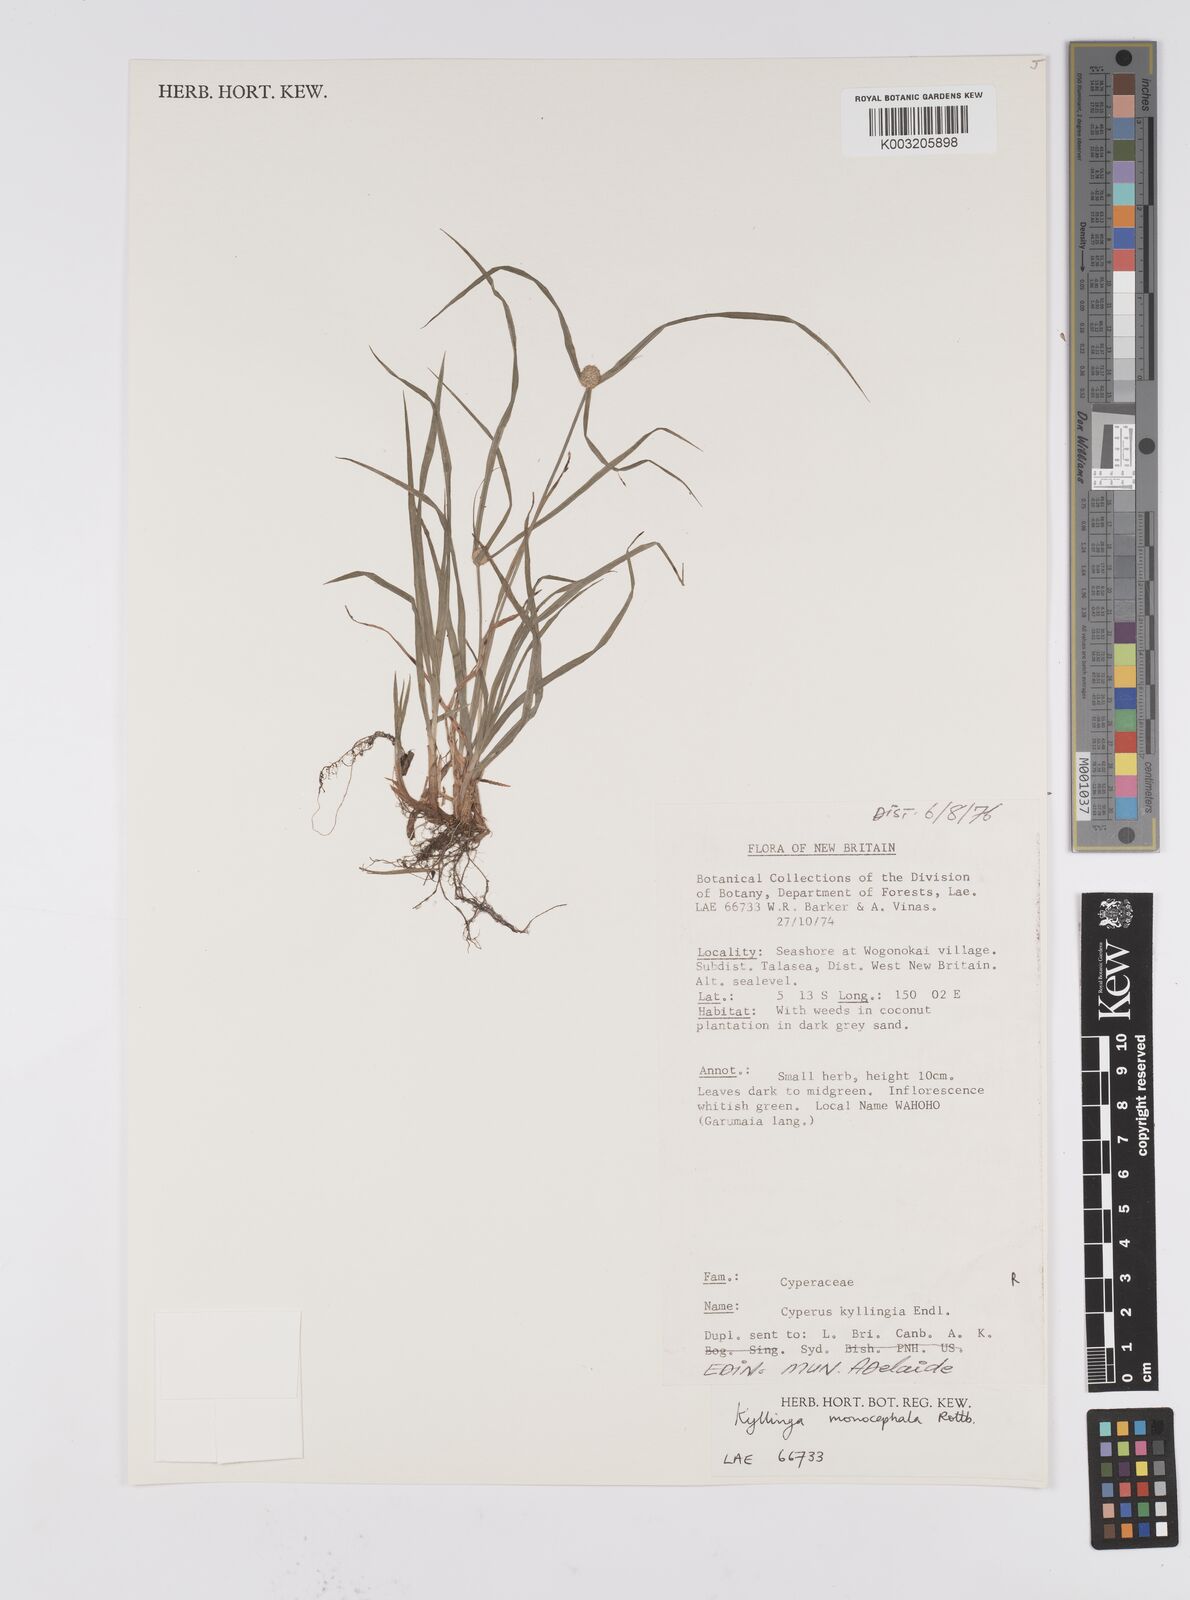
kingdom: Plantae
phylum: Tracheophyta
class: Liliopsida
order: Poales
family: Cyperaceae
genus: Cyperus
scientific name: Cyperus nemoralis
